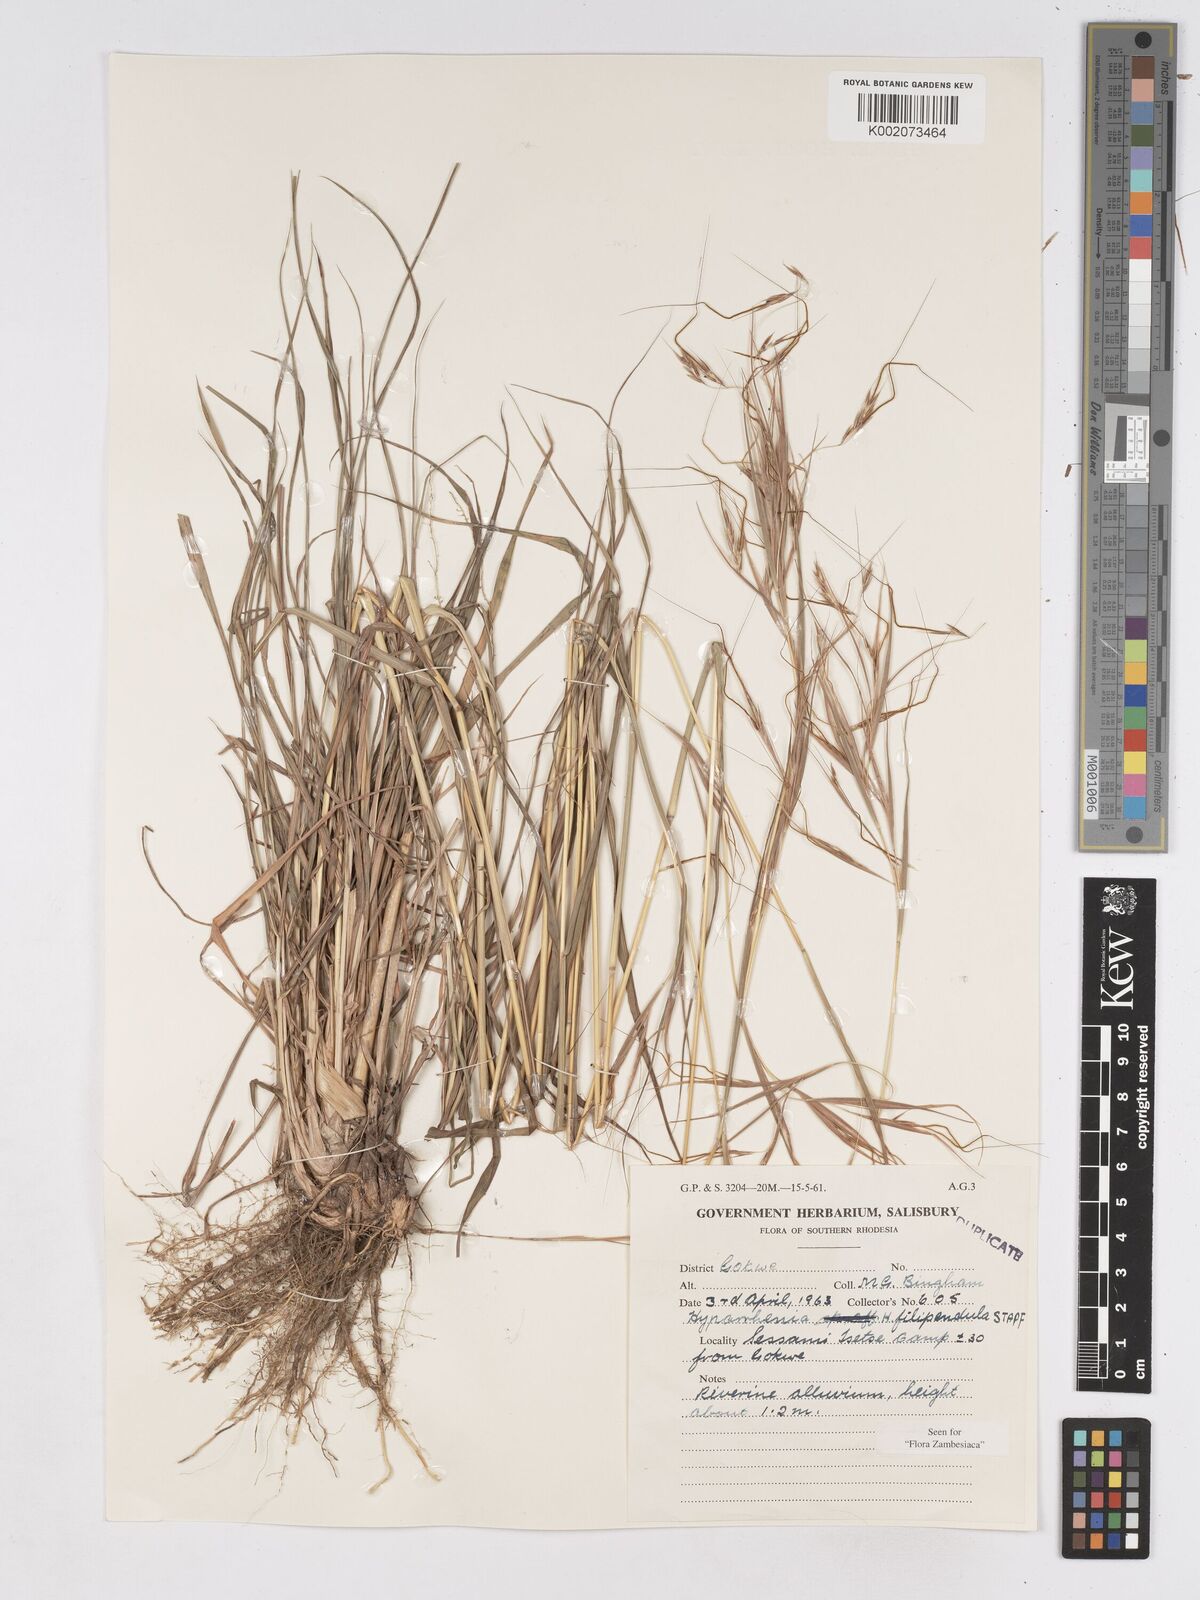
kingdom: Plantae
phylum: Tracheophyta
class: Liliopsida
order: Poales
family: Poaceae
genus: Hyparrhenia
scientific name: Hyparrhenia filipendula
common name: Tambookie grass
